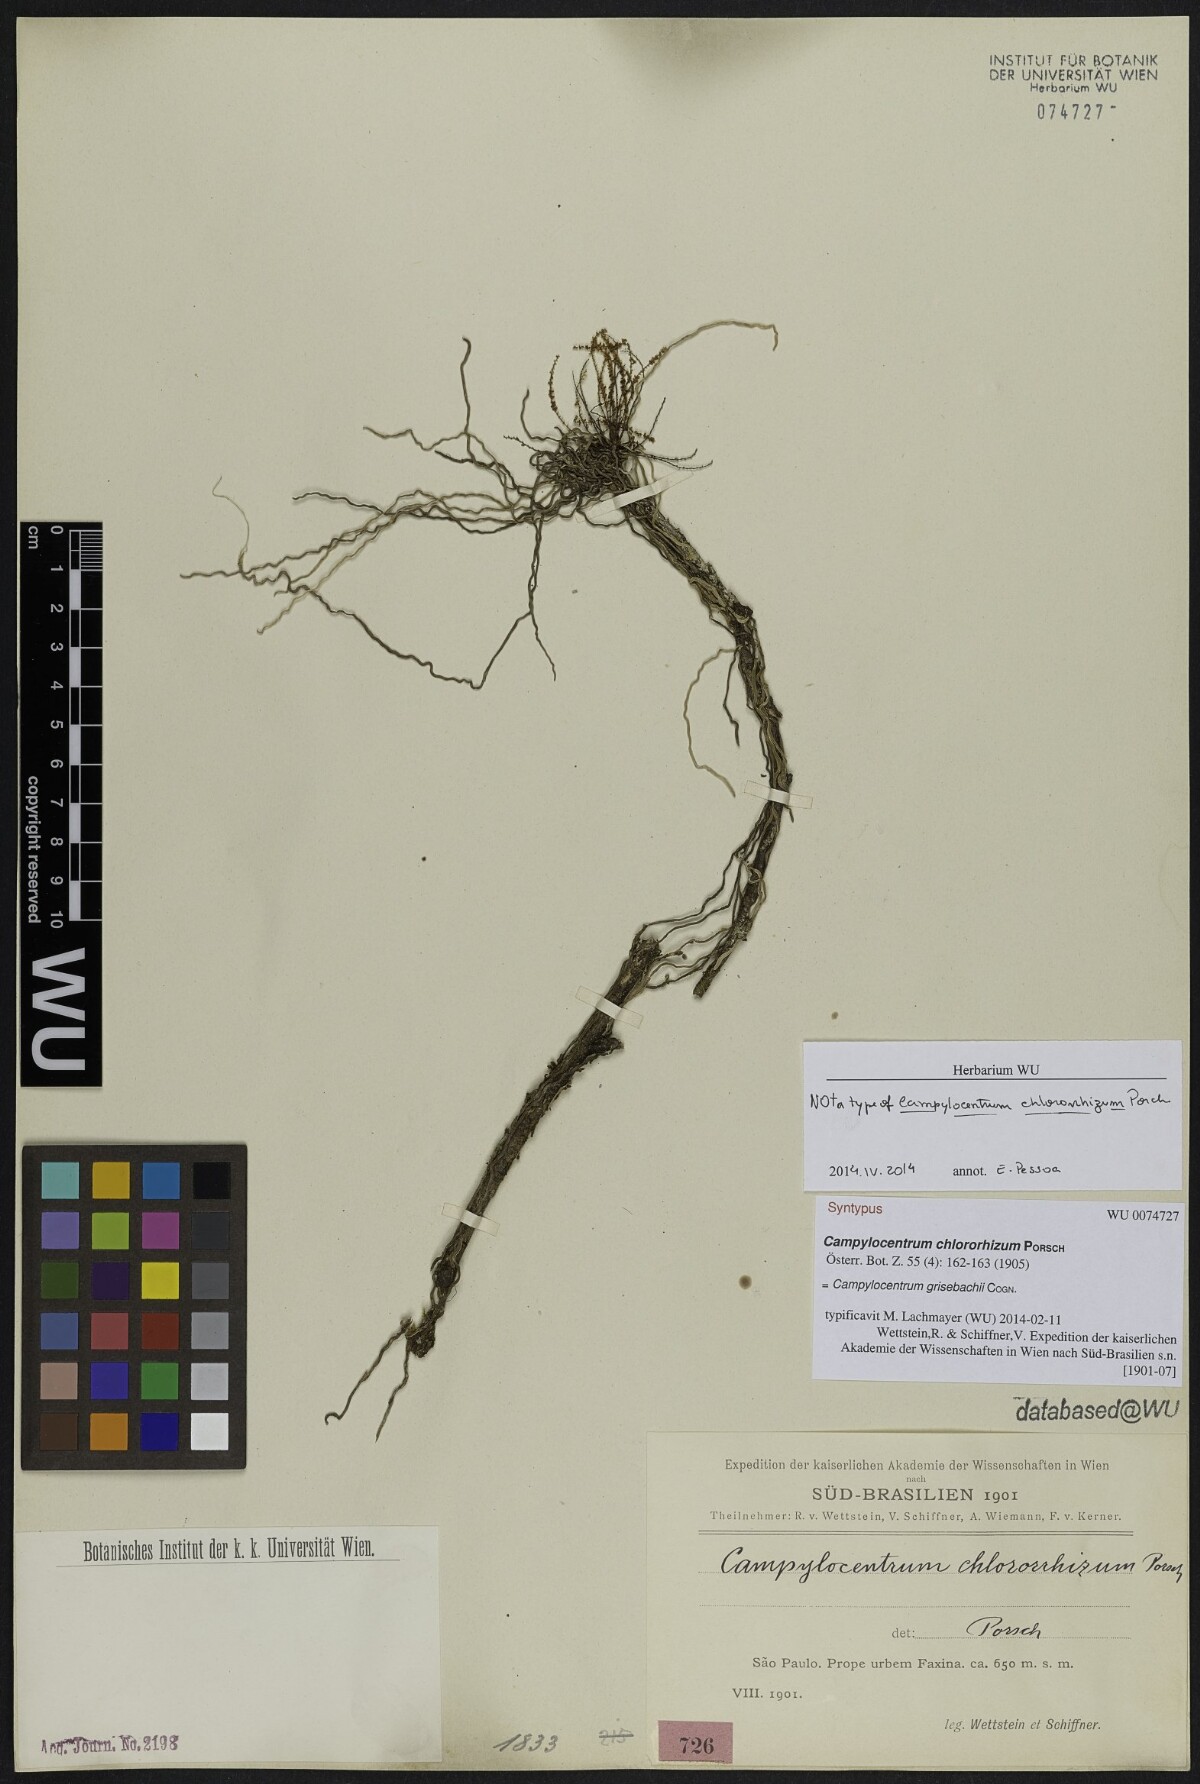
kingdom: Plantae
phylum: Tracheophyta
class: Liliopsida
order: Asparagales
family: Orchidaceae
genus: Campylocentrum
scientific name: Campylocentrum grisebachii
